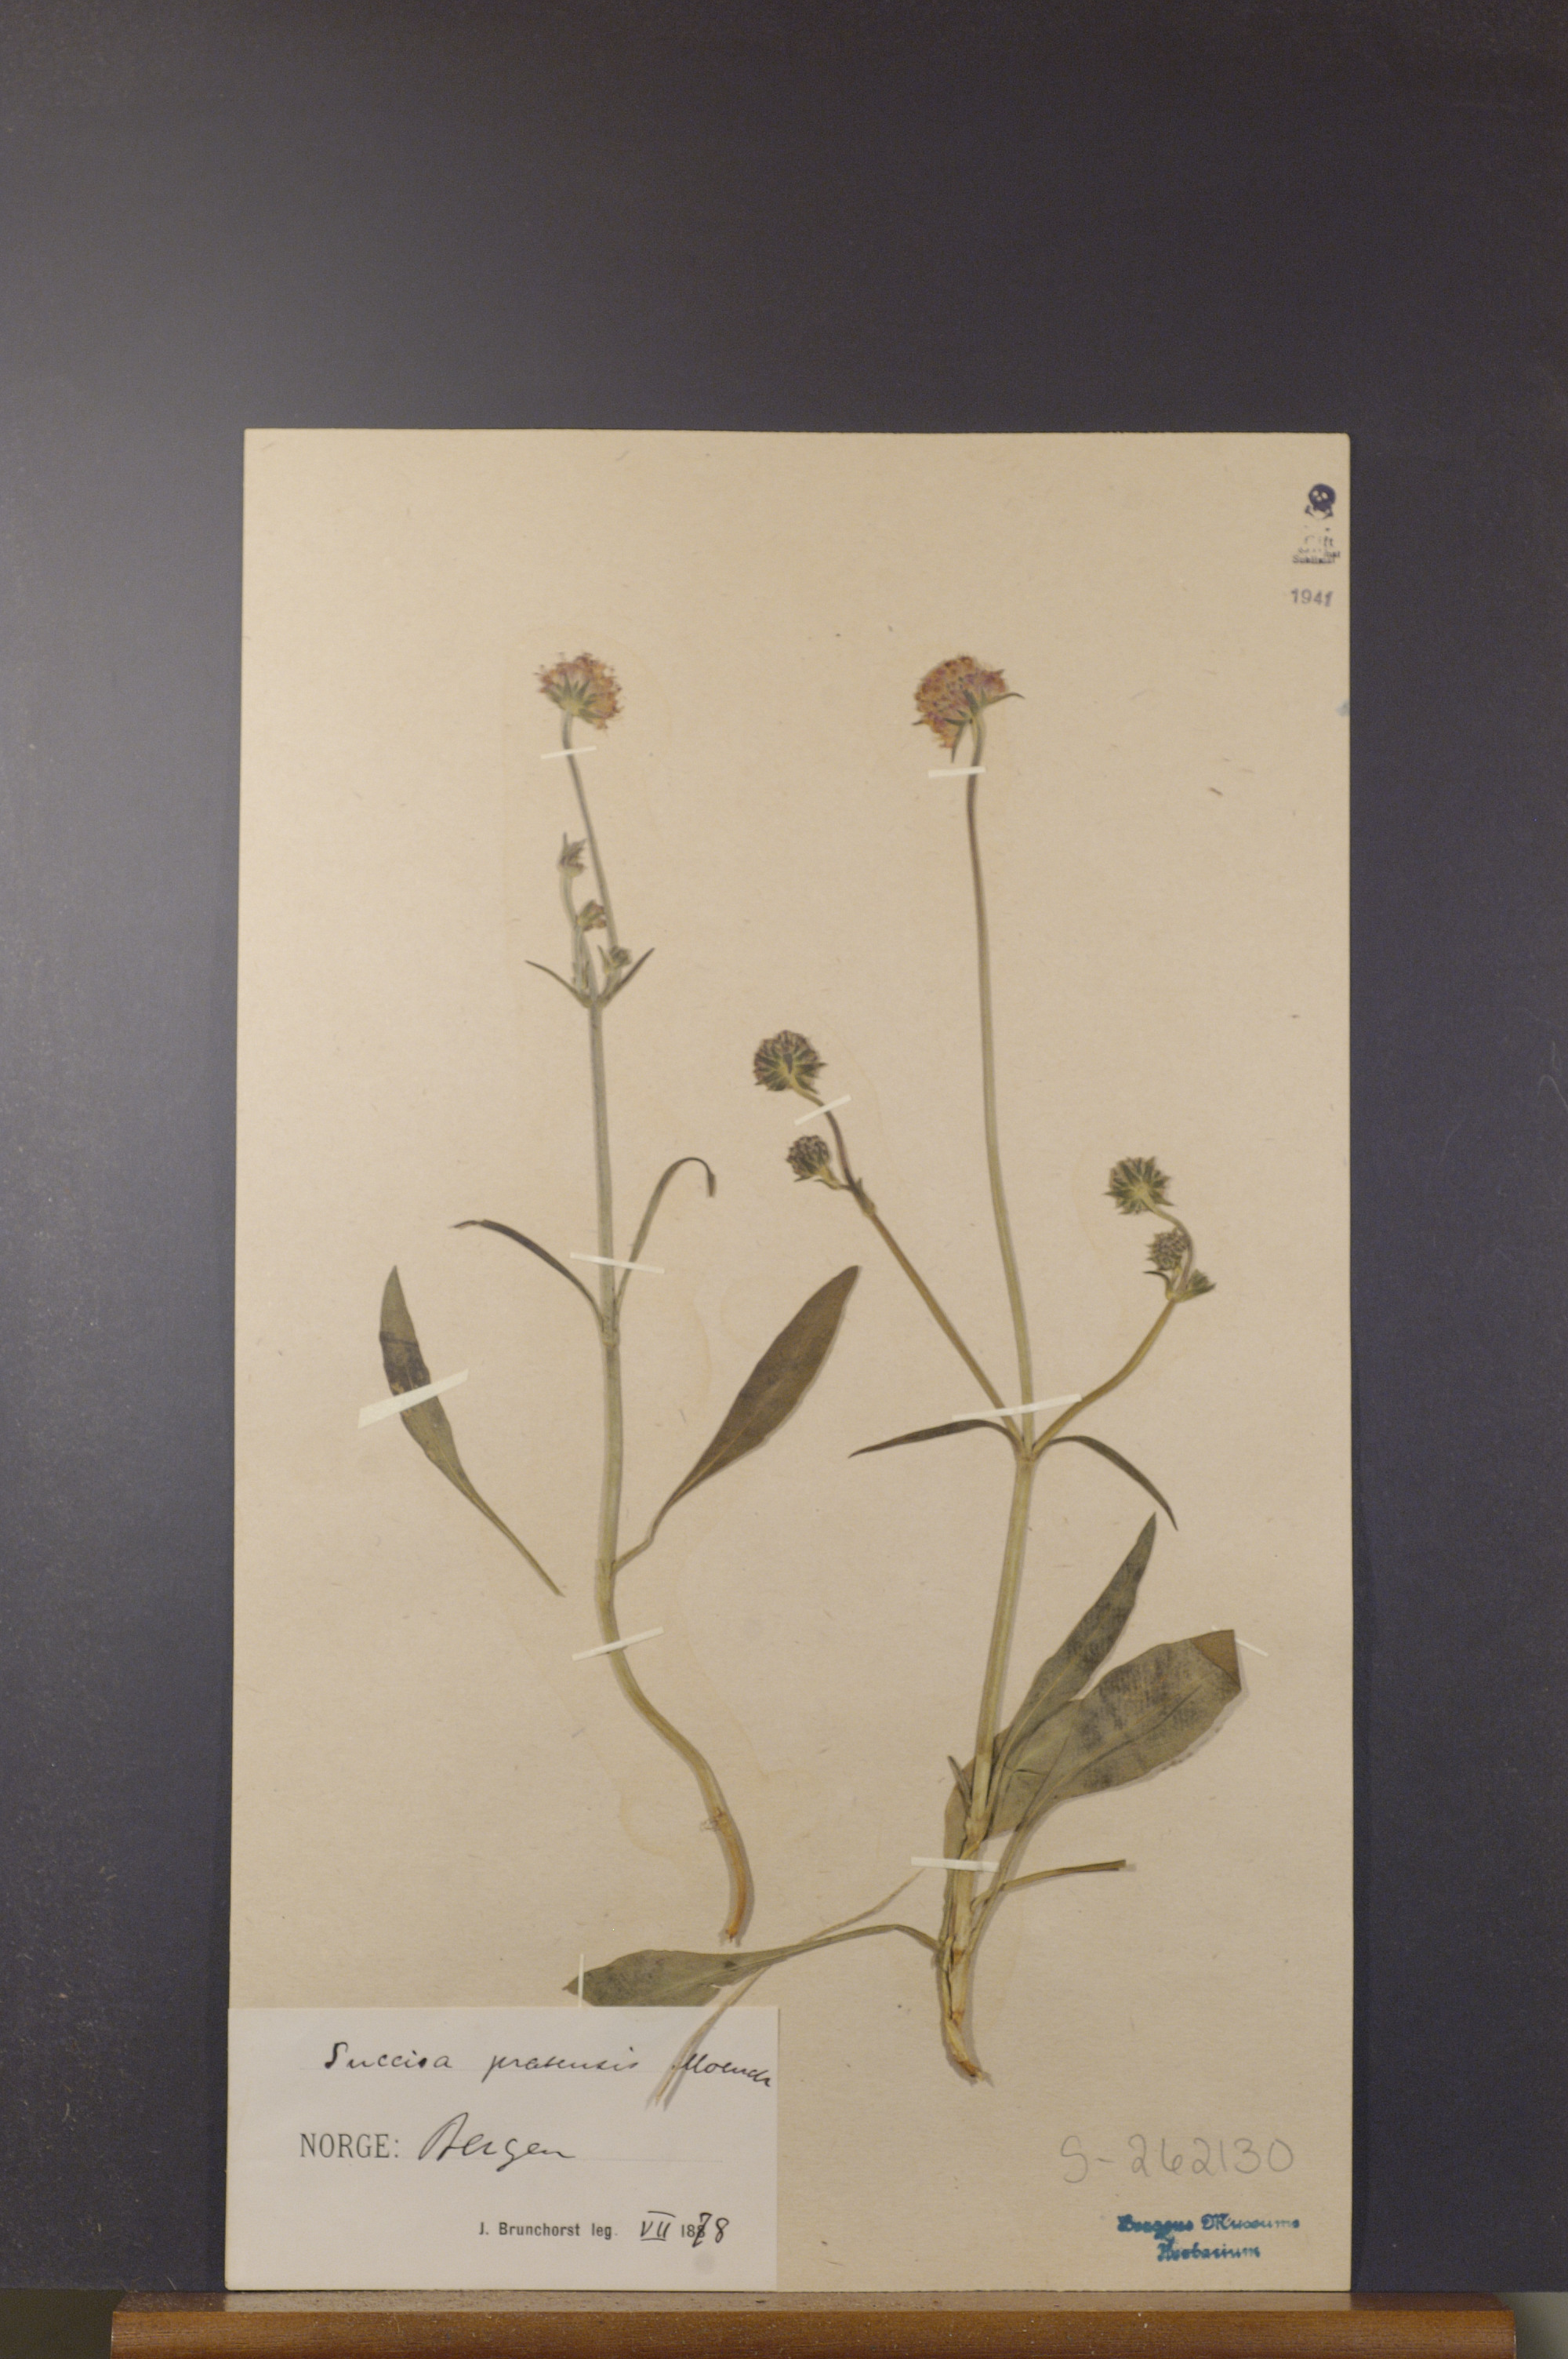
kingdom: Plantae
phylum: Tracheophyta
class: Magnoliopsida
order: Dipsacales
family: Caprifoliaceae
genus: Succisa
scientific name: Succisa pratensis
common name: Devil's-bit
